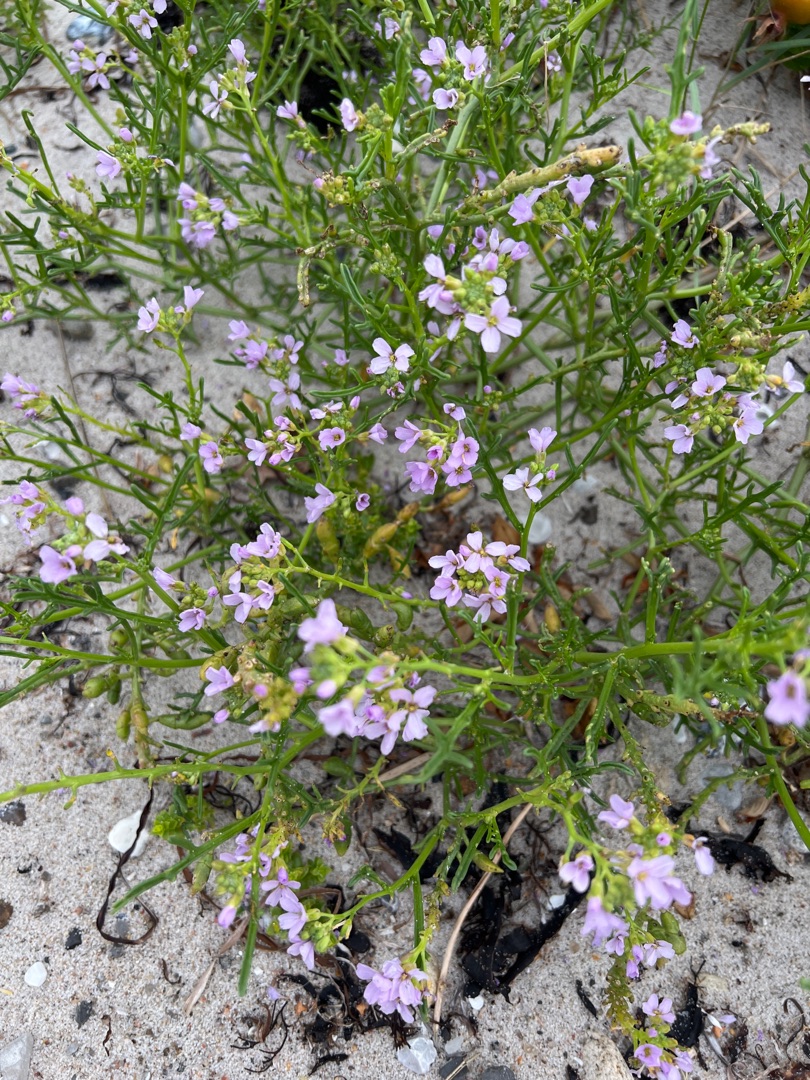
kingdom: Plantae
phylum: Tracheophyta
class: Magnoliopsida
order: Brassicales
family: Brassicaceae
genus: Cakile
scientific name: Cakile maritima
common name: Strandsennep
